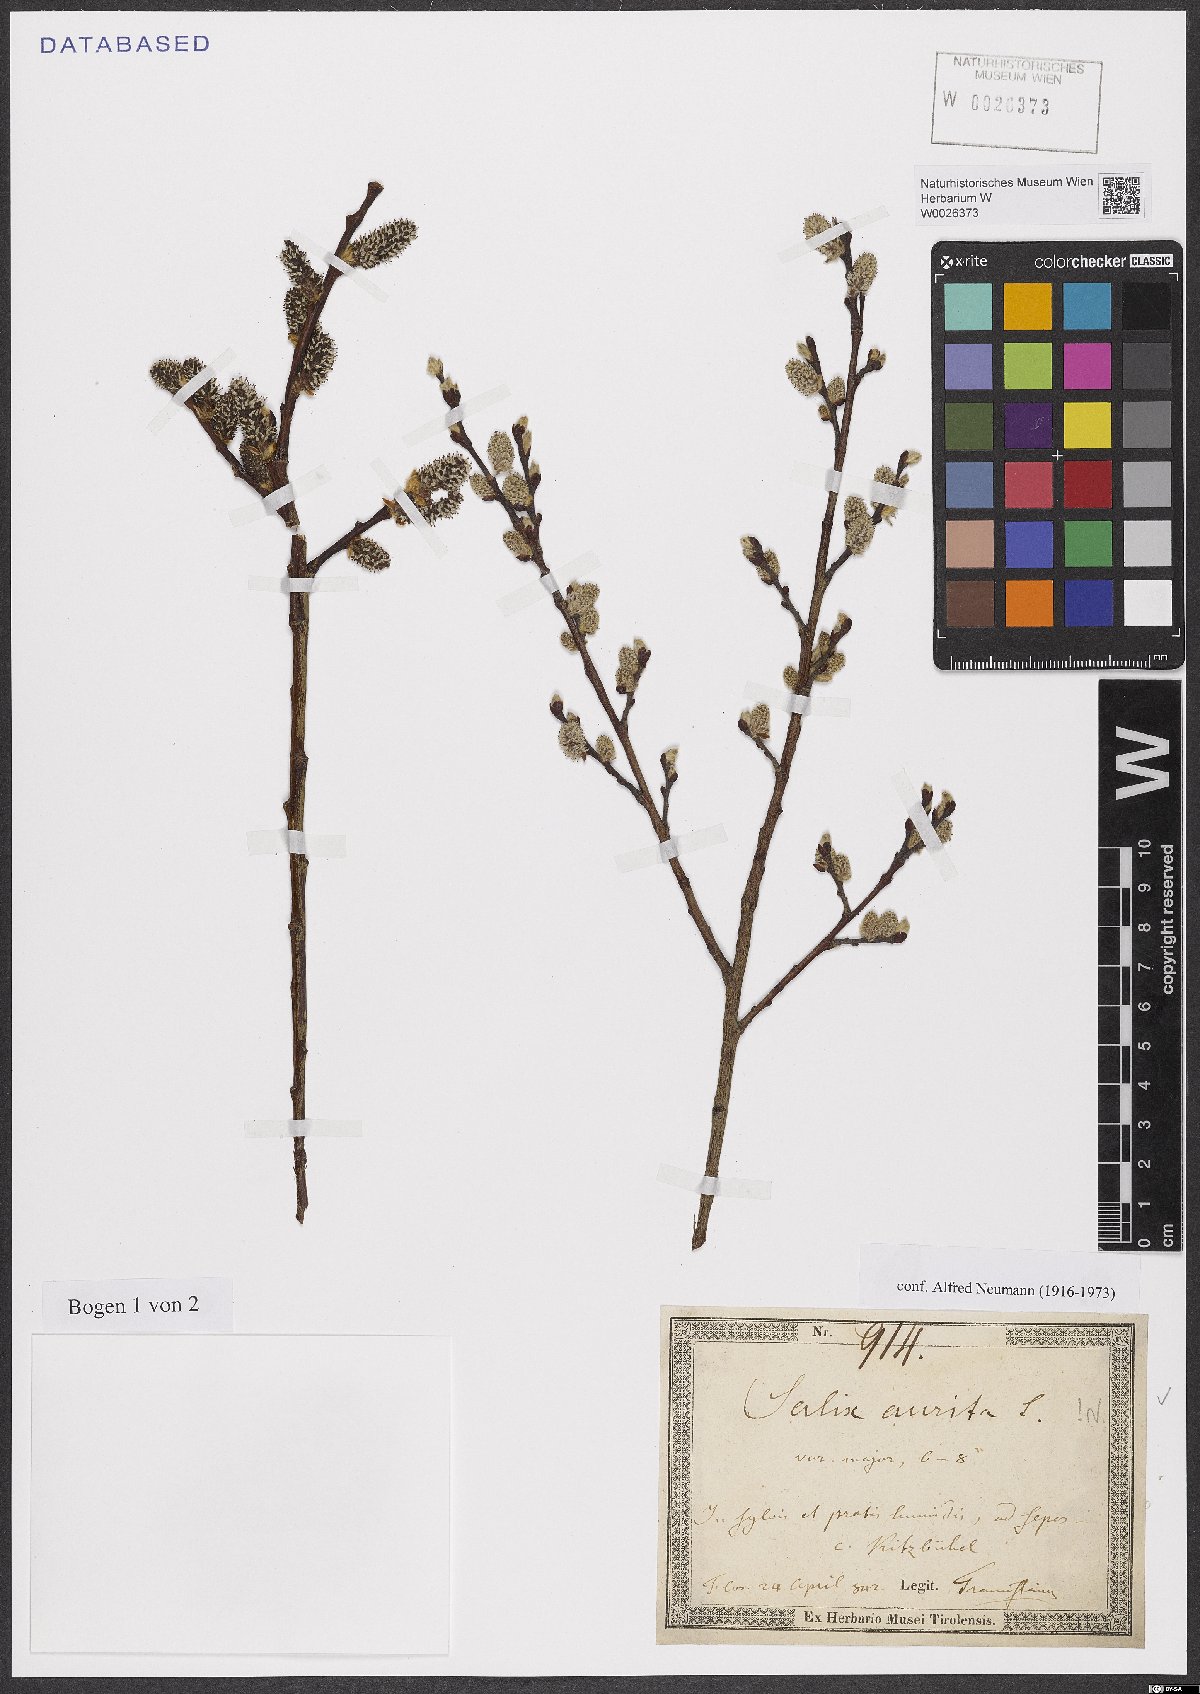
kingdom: Plantae
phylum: Tracheophyta
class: Magnoliopsida
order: Malpighiales
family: Salicaceae
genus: Salix
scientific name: Salix aurita
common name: Eared willow
